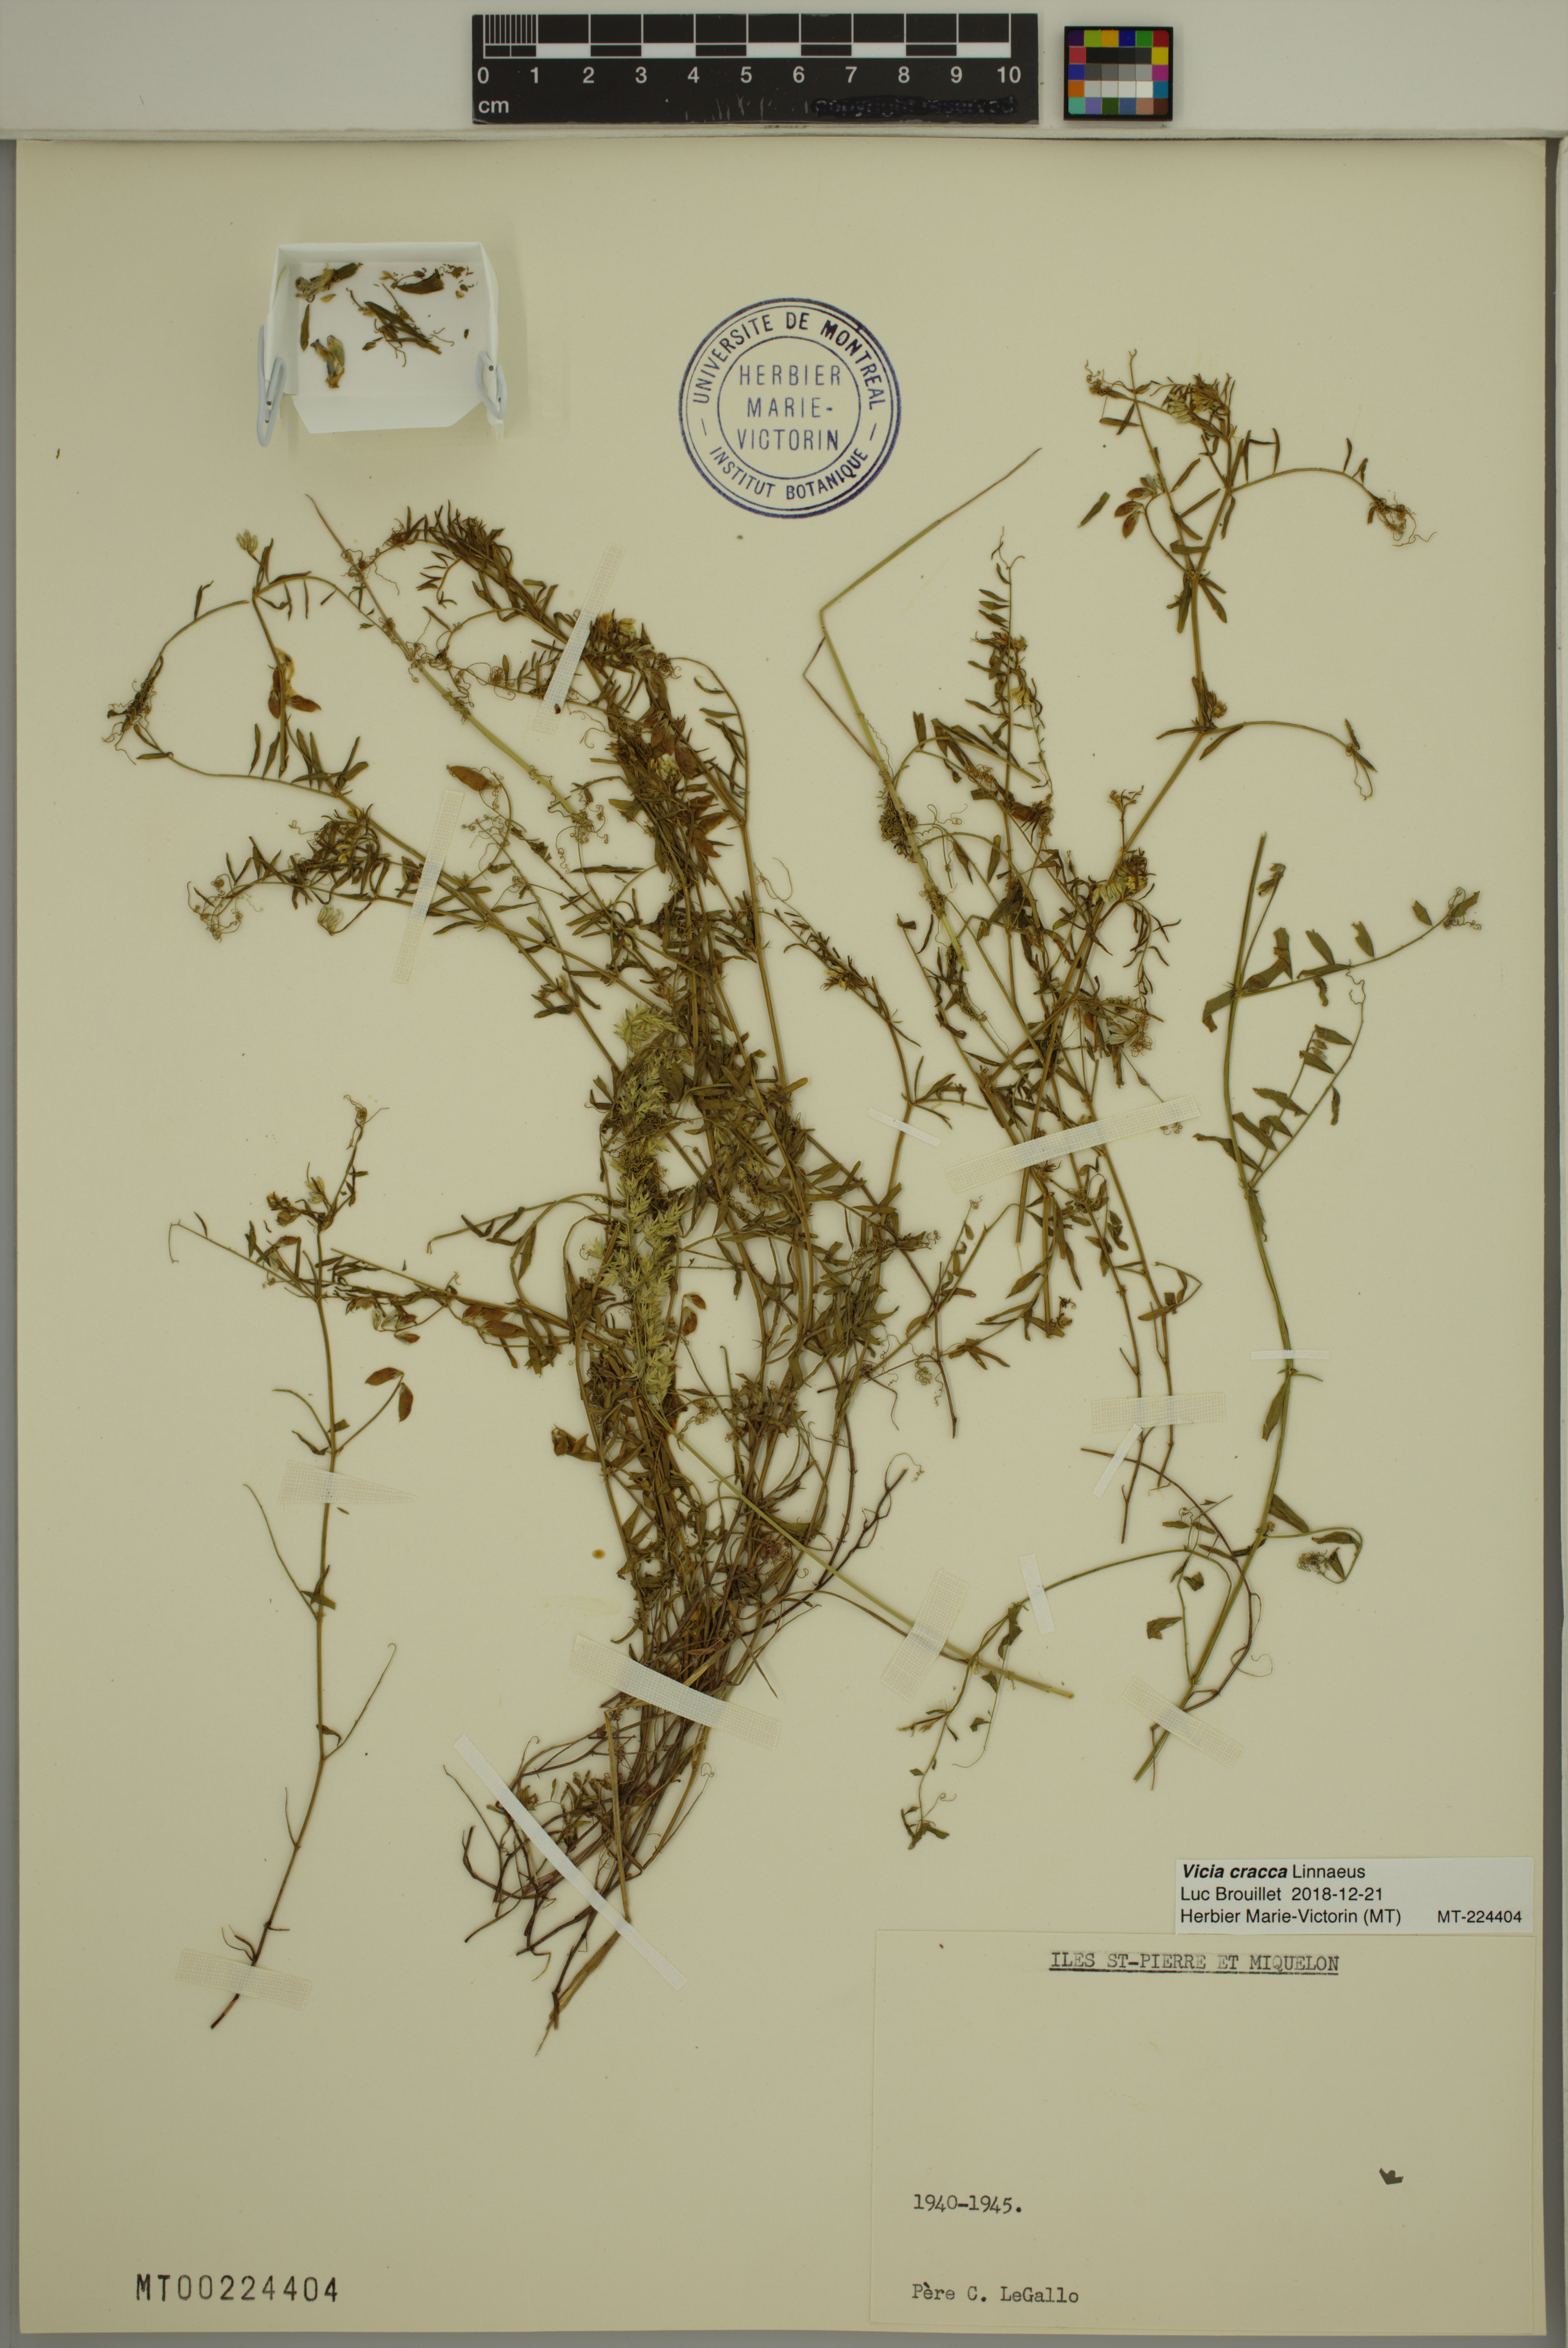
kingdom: Plantae
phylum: Tracheophyta
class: Magnoliopsida
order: Fabales
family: Fabaceae
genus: Vicia
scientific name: Vicia cracca
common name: Bird vetch
